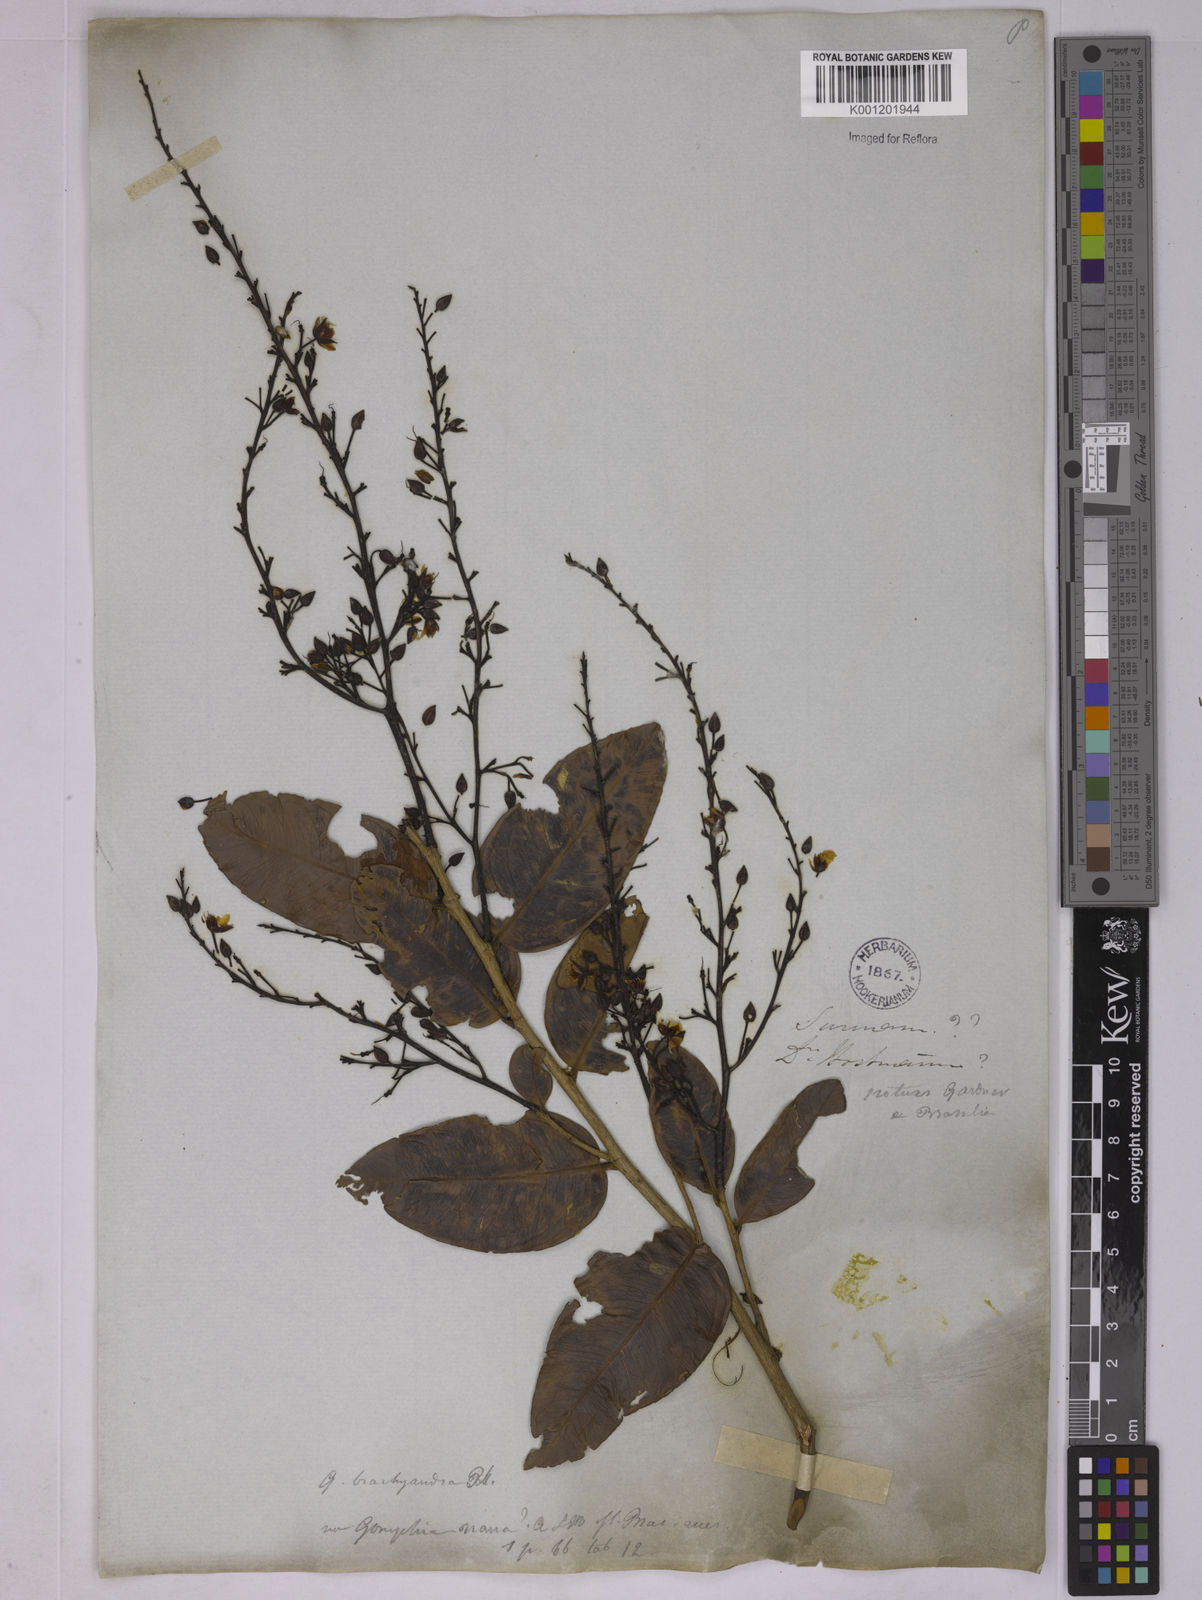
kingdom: Plantae
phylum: Tracheophyta
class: Magnoliopsida
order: Malpighiales
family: Ochnaceae
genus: Ouratea
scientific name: Ouratea parvifolia
